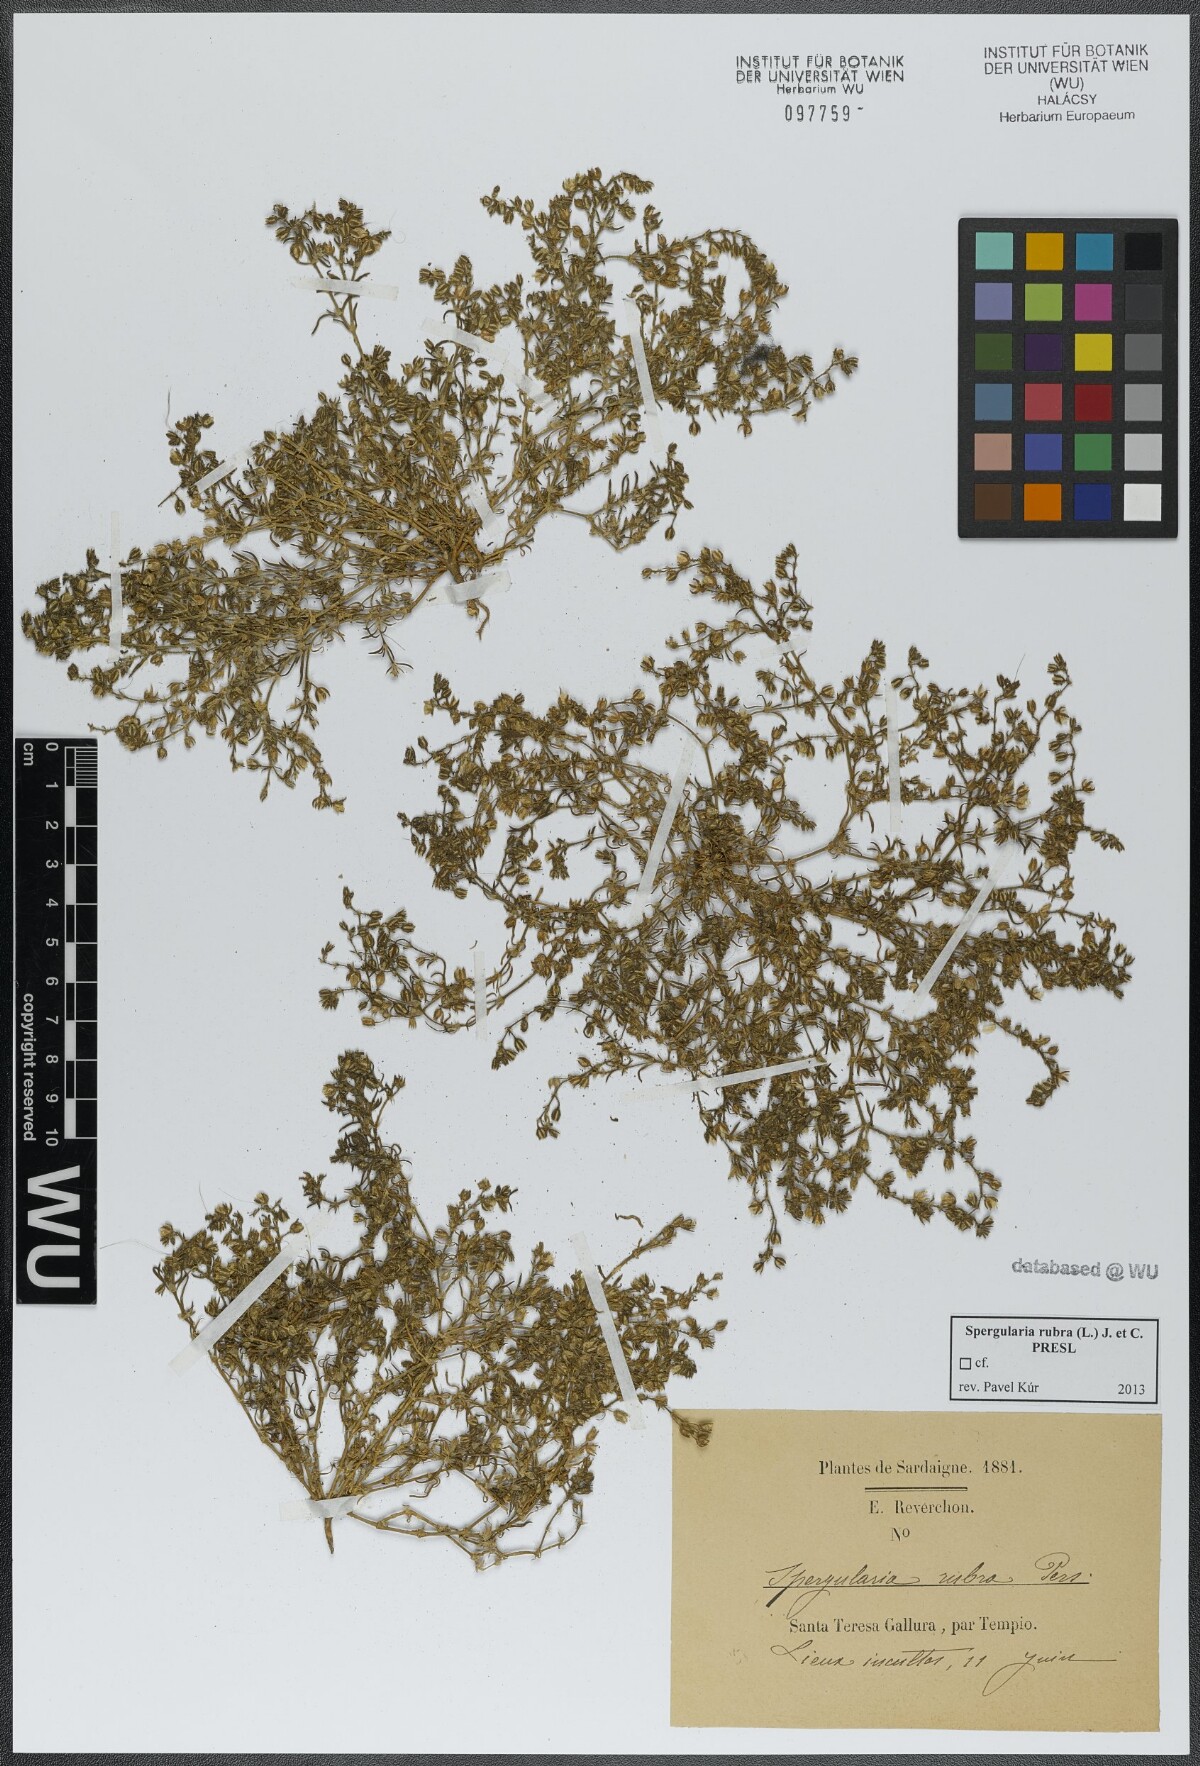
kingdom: Plantae
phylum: Tracheophyta
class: Magnoliopsida
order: Caryophyllales
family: Caryophyllaceae
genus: Spergularia
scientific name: Spergularia rubra
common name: Red sand-spurrey
